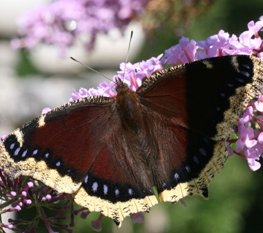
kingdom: Animalia
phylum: Arthropoda
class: Insecta
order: Lepidoptera
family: Nymphalidae
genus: Nymphalis
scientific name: Nymphalis antiopa
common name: Mourning Cloak
